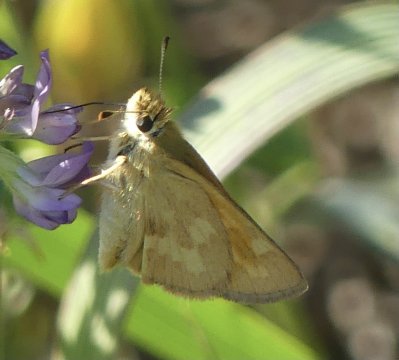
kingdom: Animalia
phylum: Arthropoda
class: Insecta
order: Lepidoptera
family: Hesperiidae
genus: Ochlodes
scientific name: Ochlodes sylvanoides
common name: Woodland Skipper
